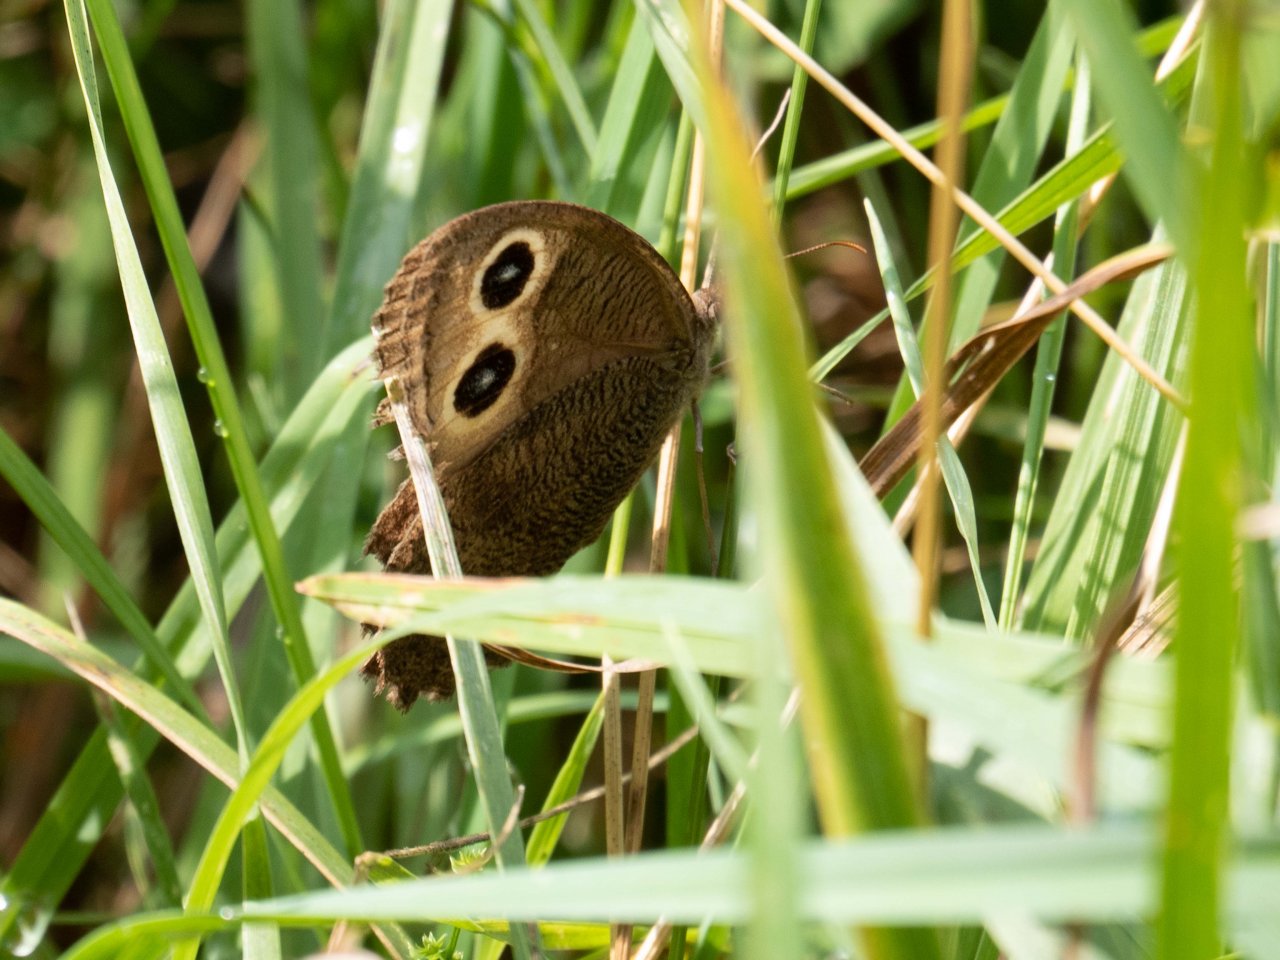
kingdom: Animalia
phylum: Arthropoda
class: Insecta
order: Lepidoptera
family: Nymphalidae
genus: Cercyonis
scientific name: Cercyonis pegala
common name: Common Wood-Nymph
